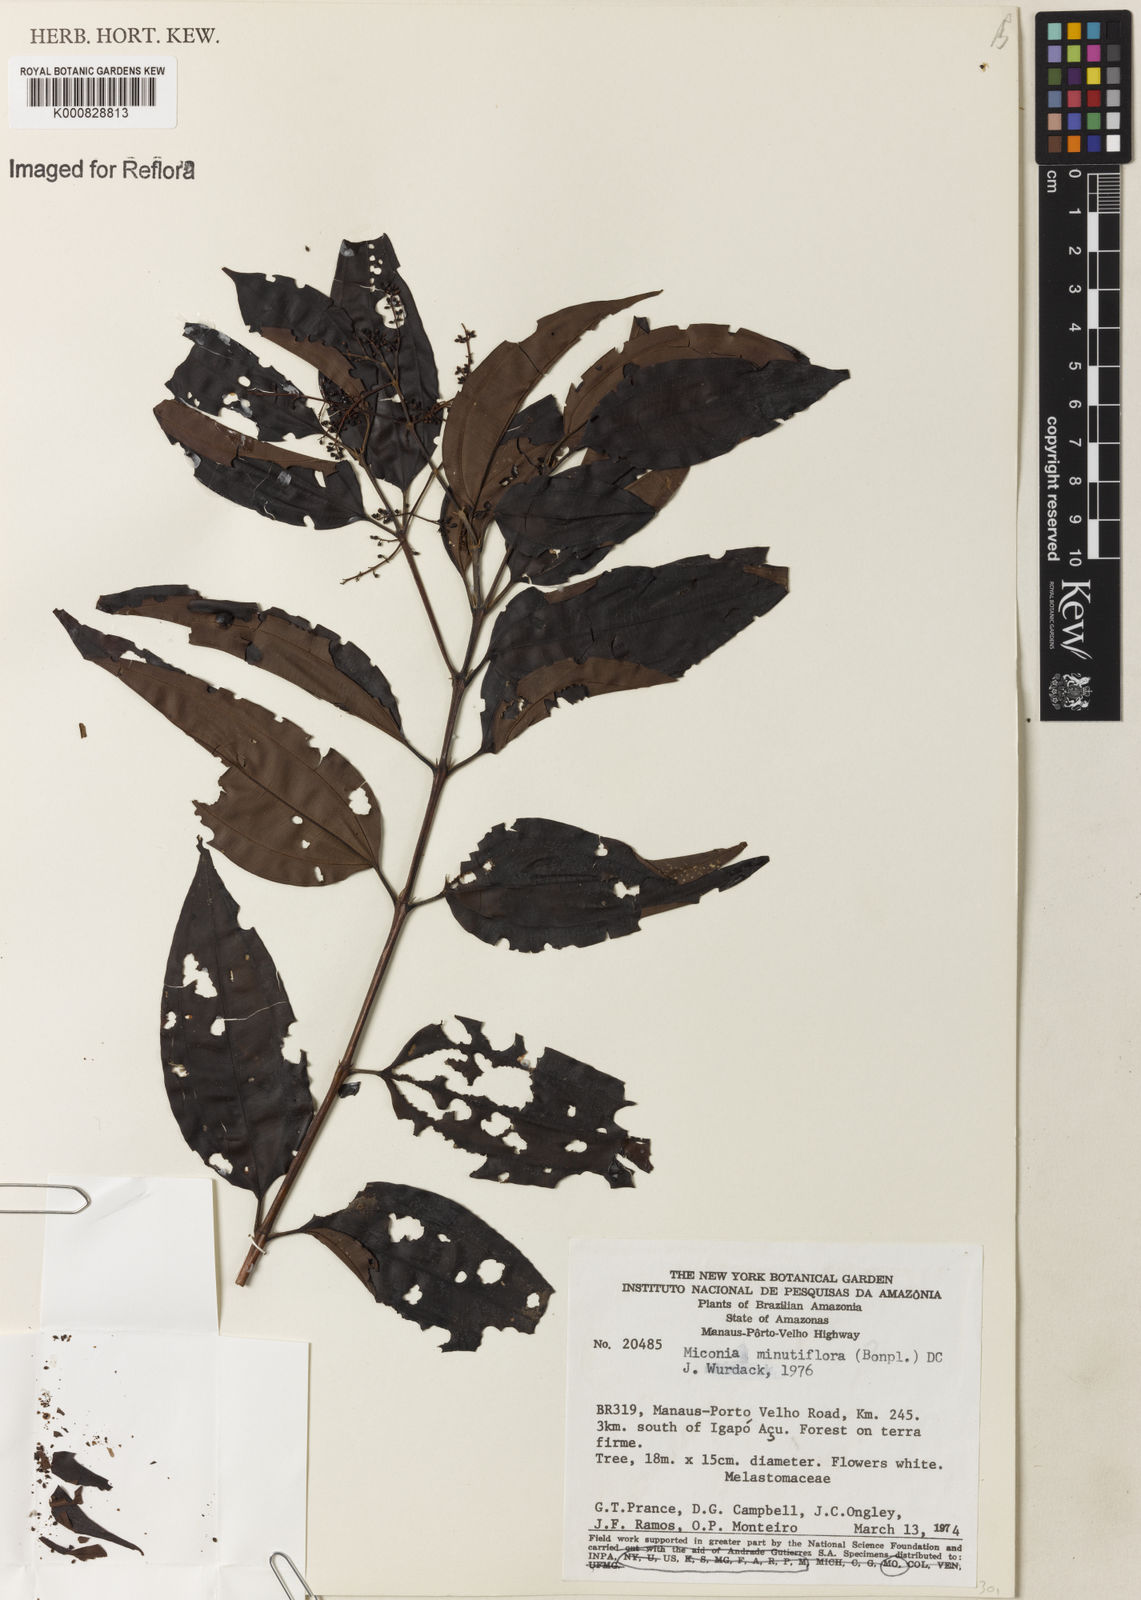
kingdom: Plantae
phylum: Tracheophyta
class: Magnoliopsida
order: Myrtales
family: Melastomataceae
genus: Miconia
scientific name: Miconia minutiflora
